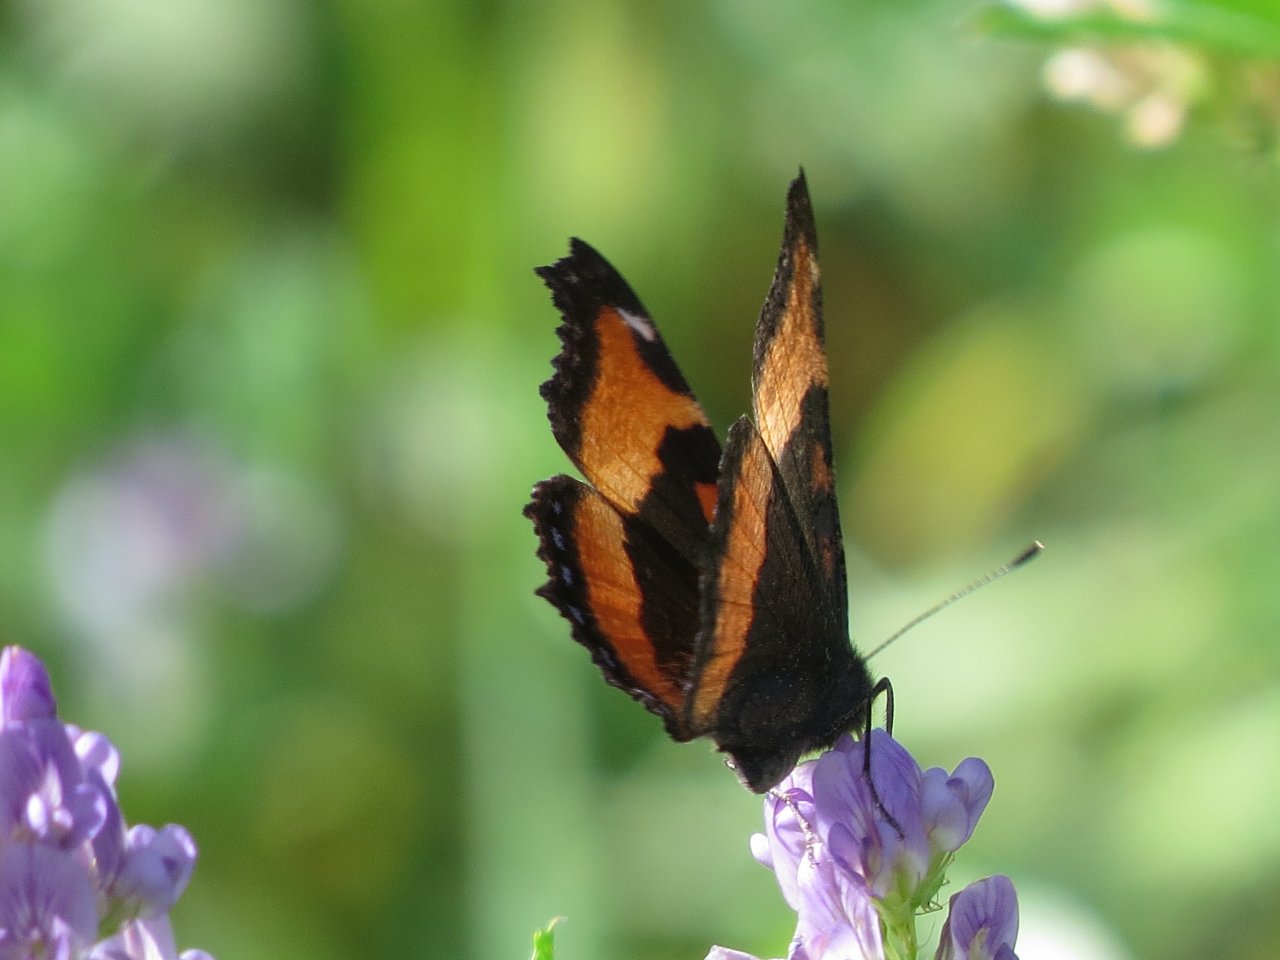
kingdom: Animalia
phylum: Arthropoda
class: Insecta
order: Lepidoptera
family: Nymphalidae
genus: Aglais
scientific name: Aglais milberti
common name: Milbert's Tortoiseshell
